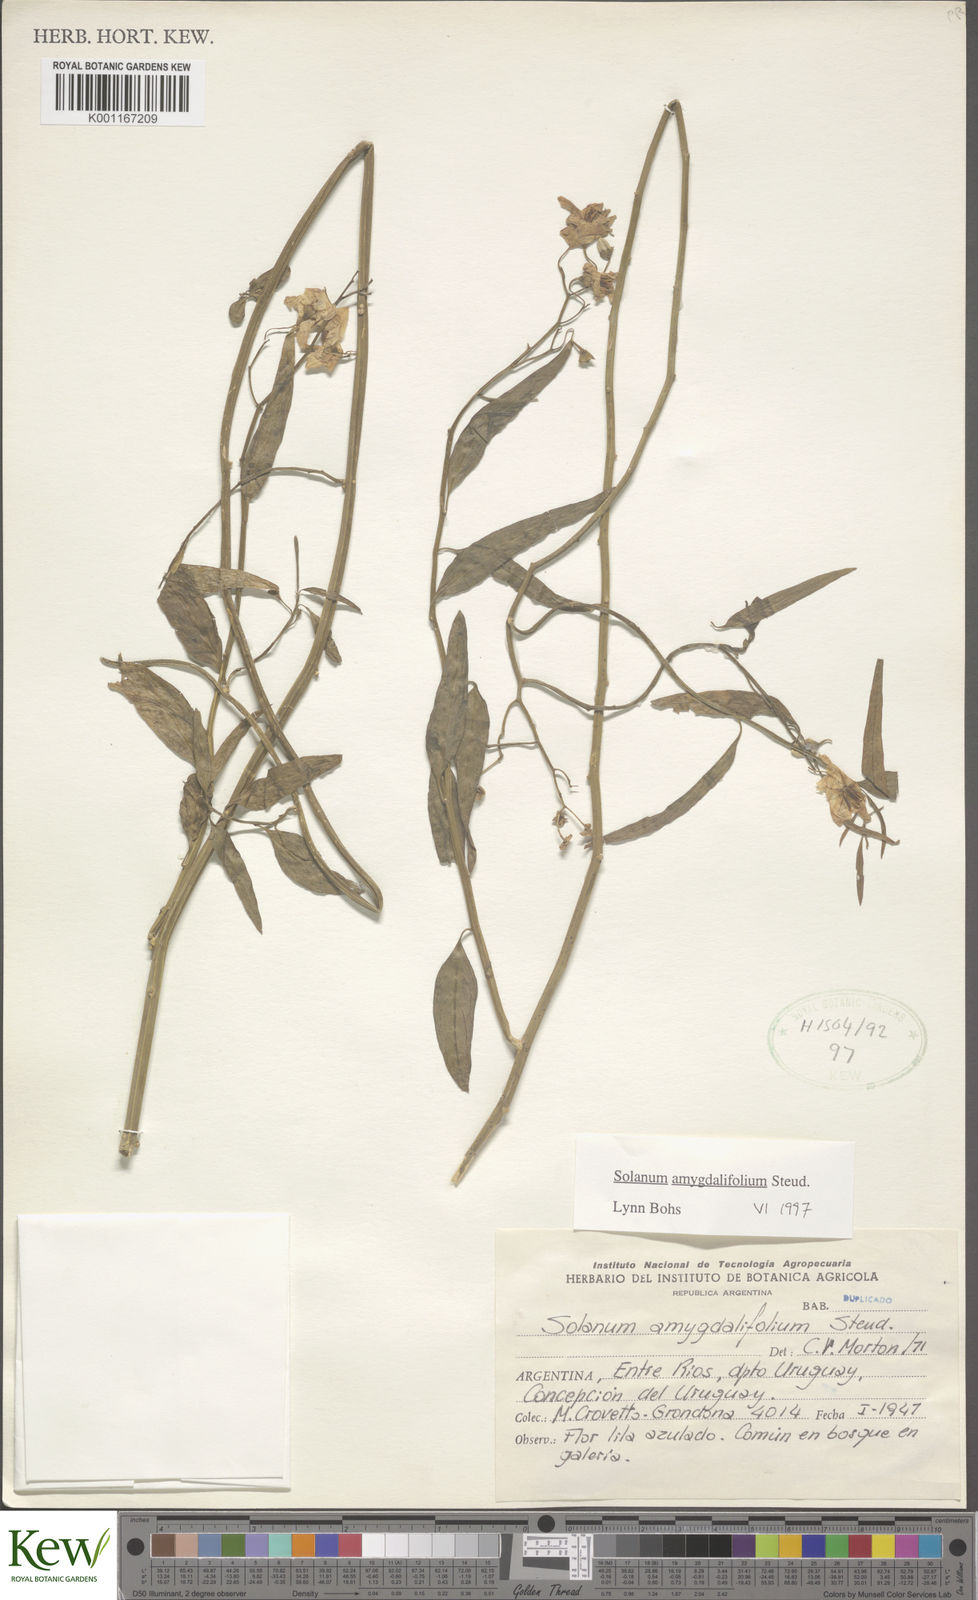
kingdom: Plantae
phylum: Tracheophyta
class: Magnoliopsida
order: Solanales
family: Solanaceae
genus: Solanum
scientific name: Solanum amygdalifolium
